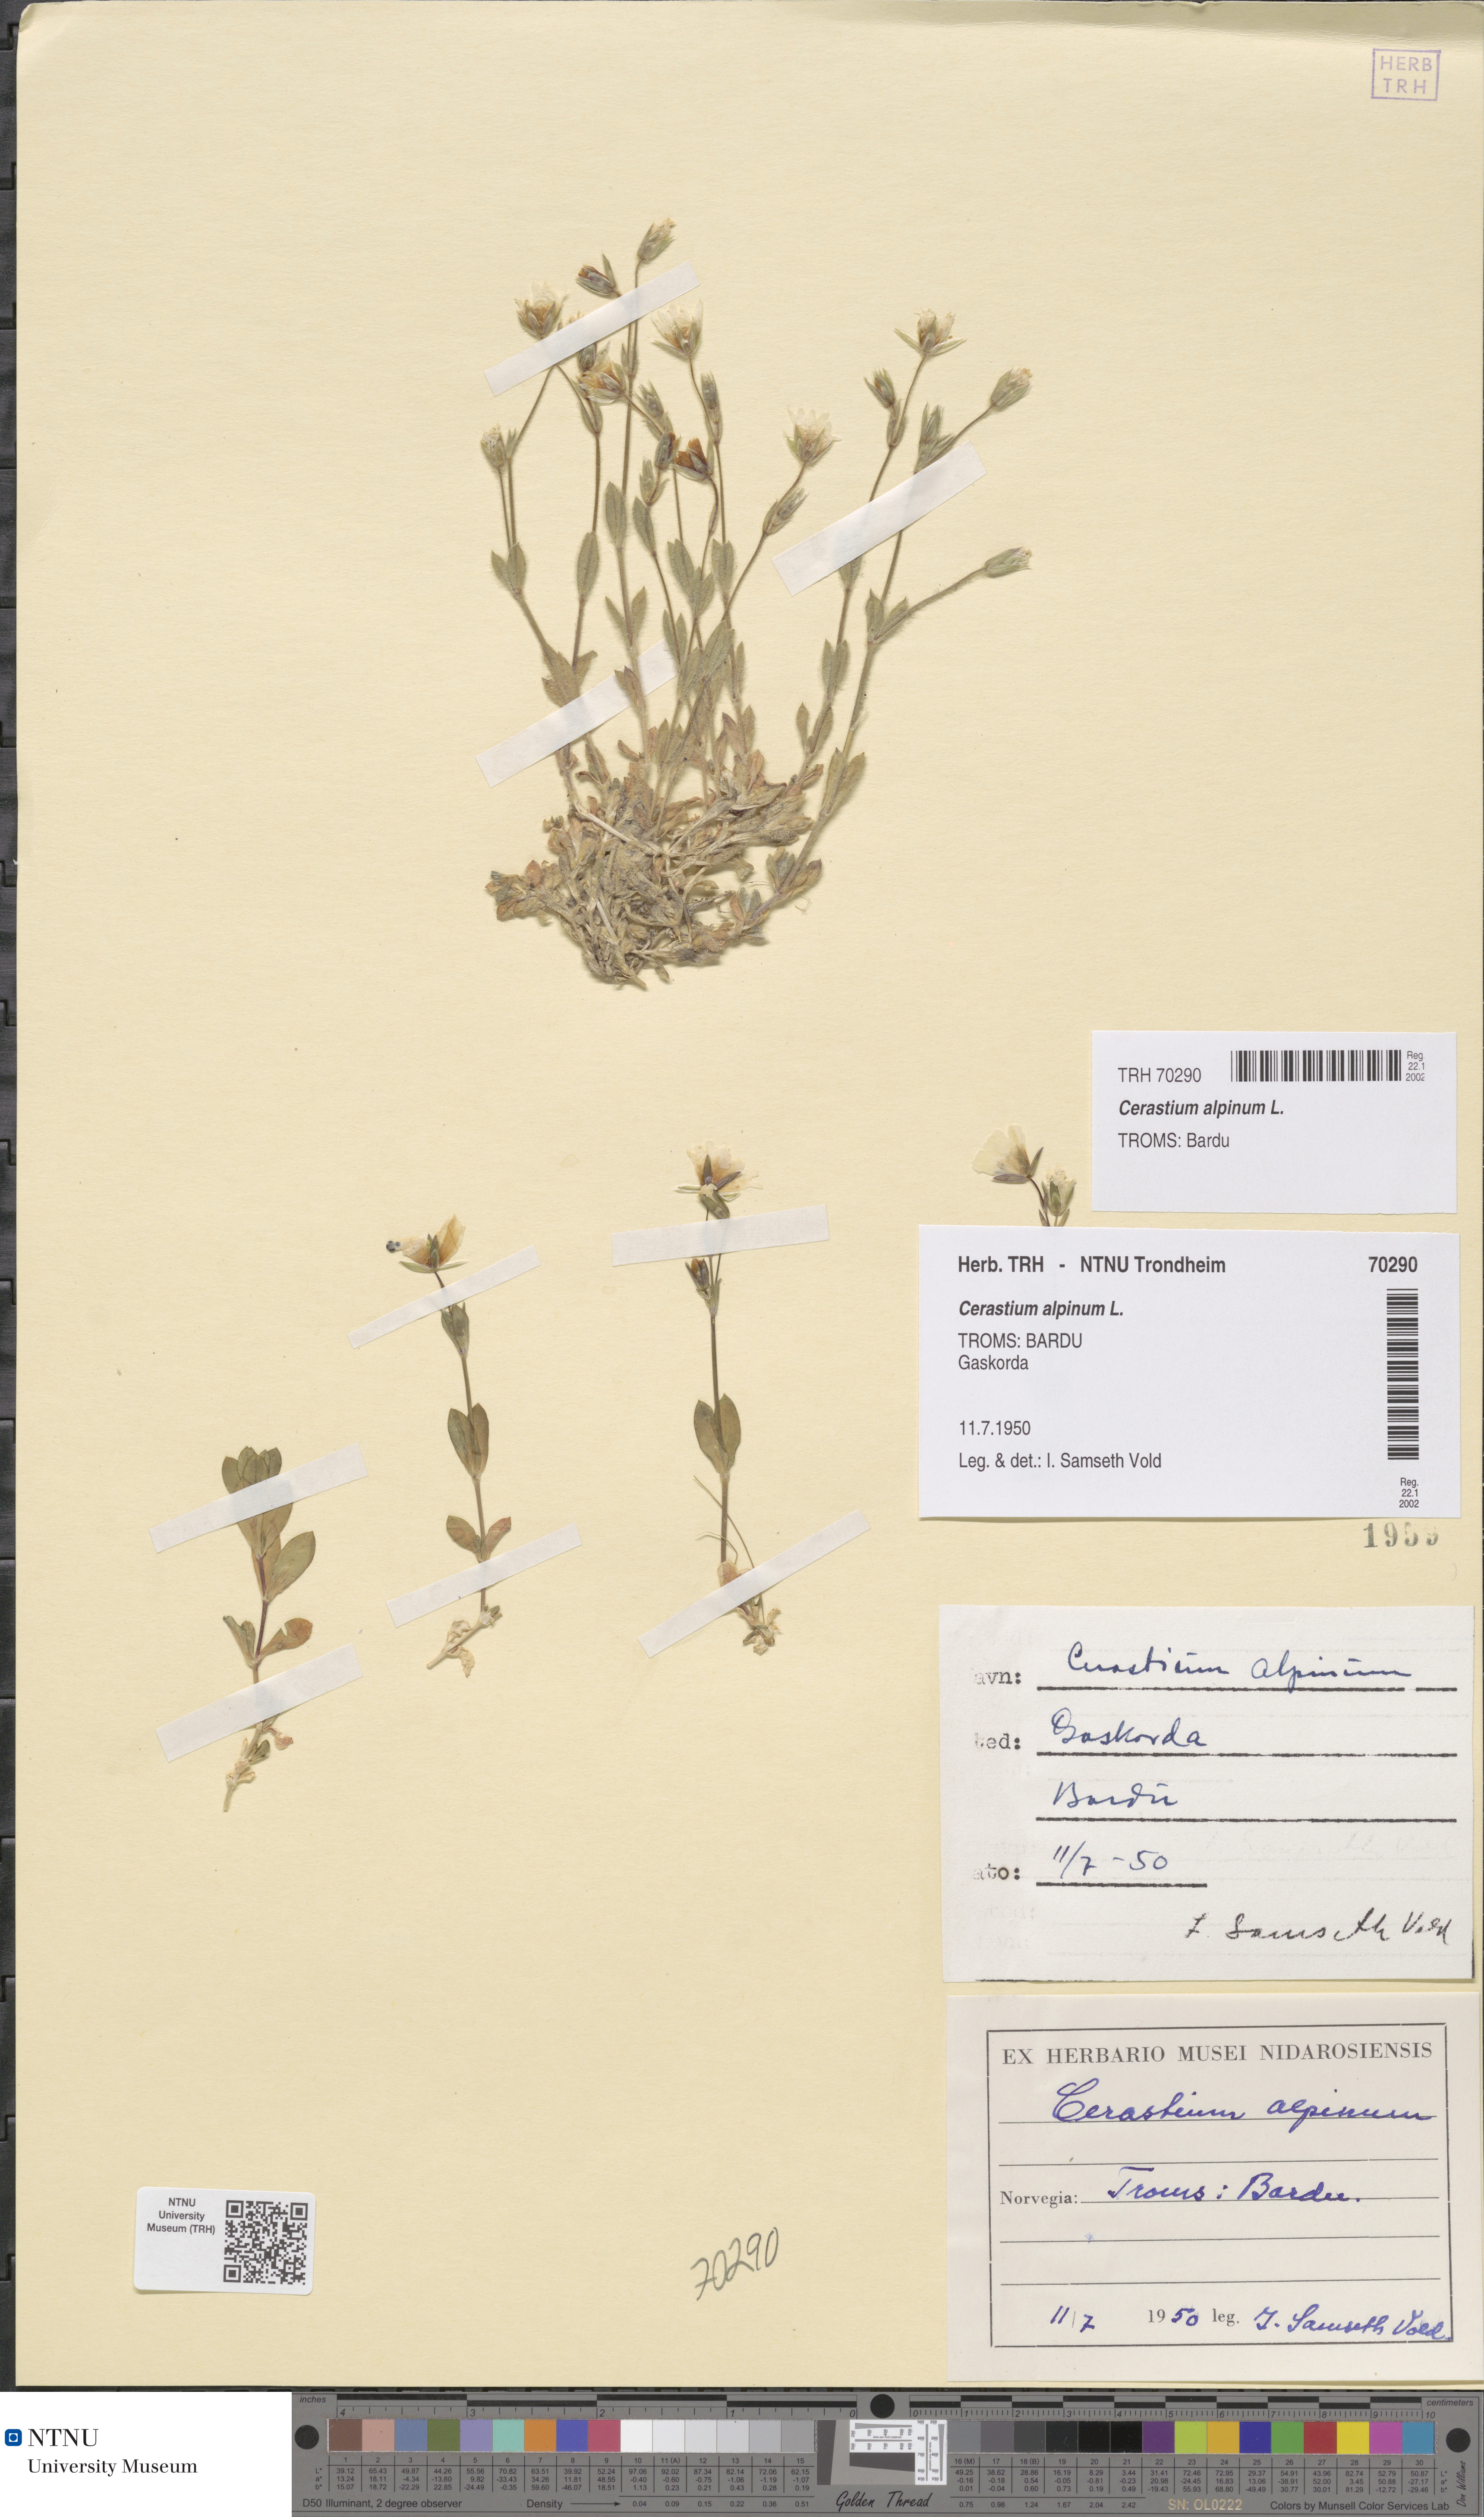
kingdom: Plantae
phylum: Tracheophyta
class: Magnoliopsida
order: Caryophyllales
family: Caryophyllaceae
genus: Cerastium
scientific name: Cerastium alpinum
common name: Alpine mouse-ear
